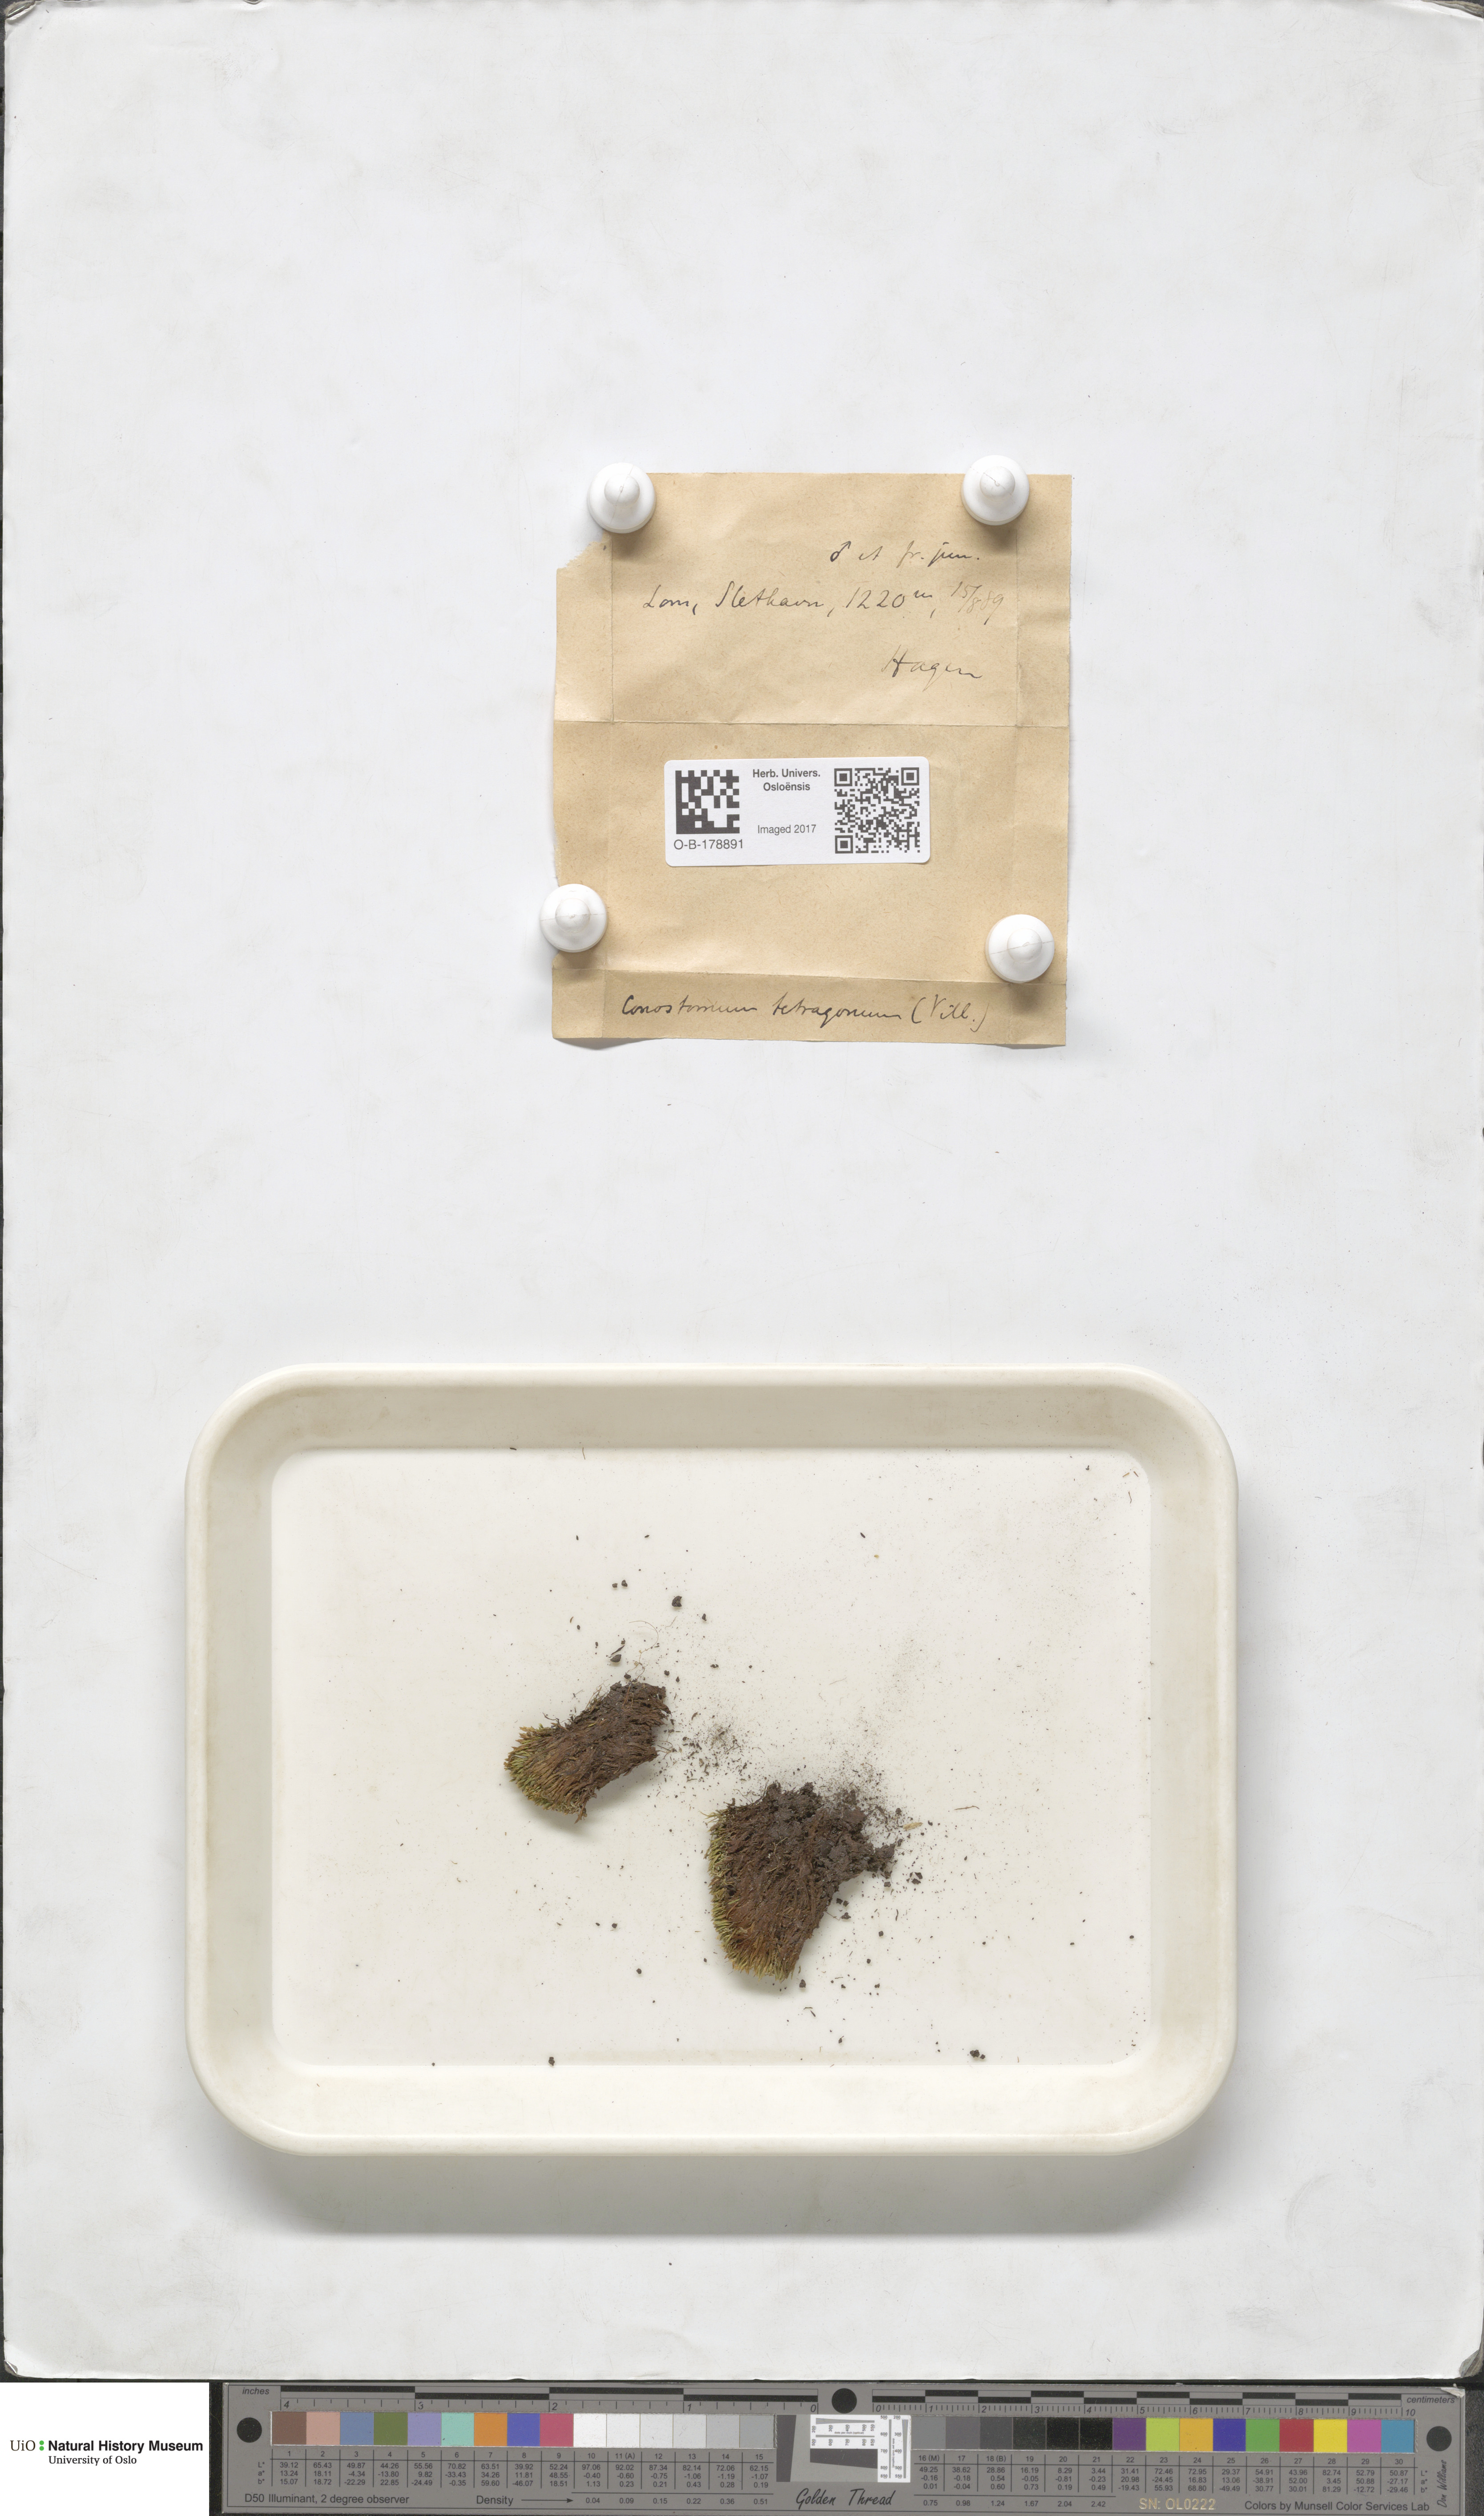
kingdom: Plantae
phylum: Bryophyta
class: Bryopsida
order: Bartramiales
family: Bartramiaceae
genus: Conostomum
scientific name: Conostomum tetragonum
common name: Helmet moss
